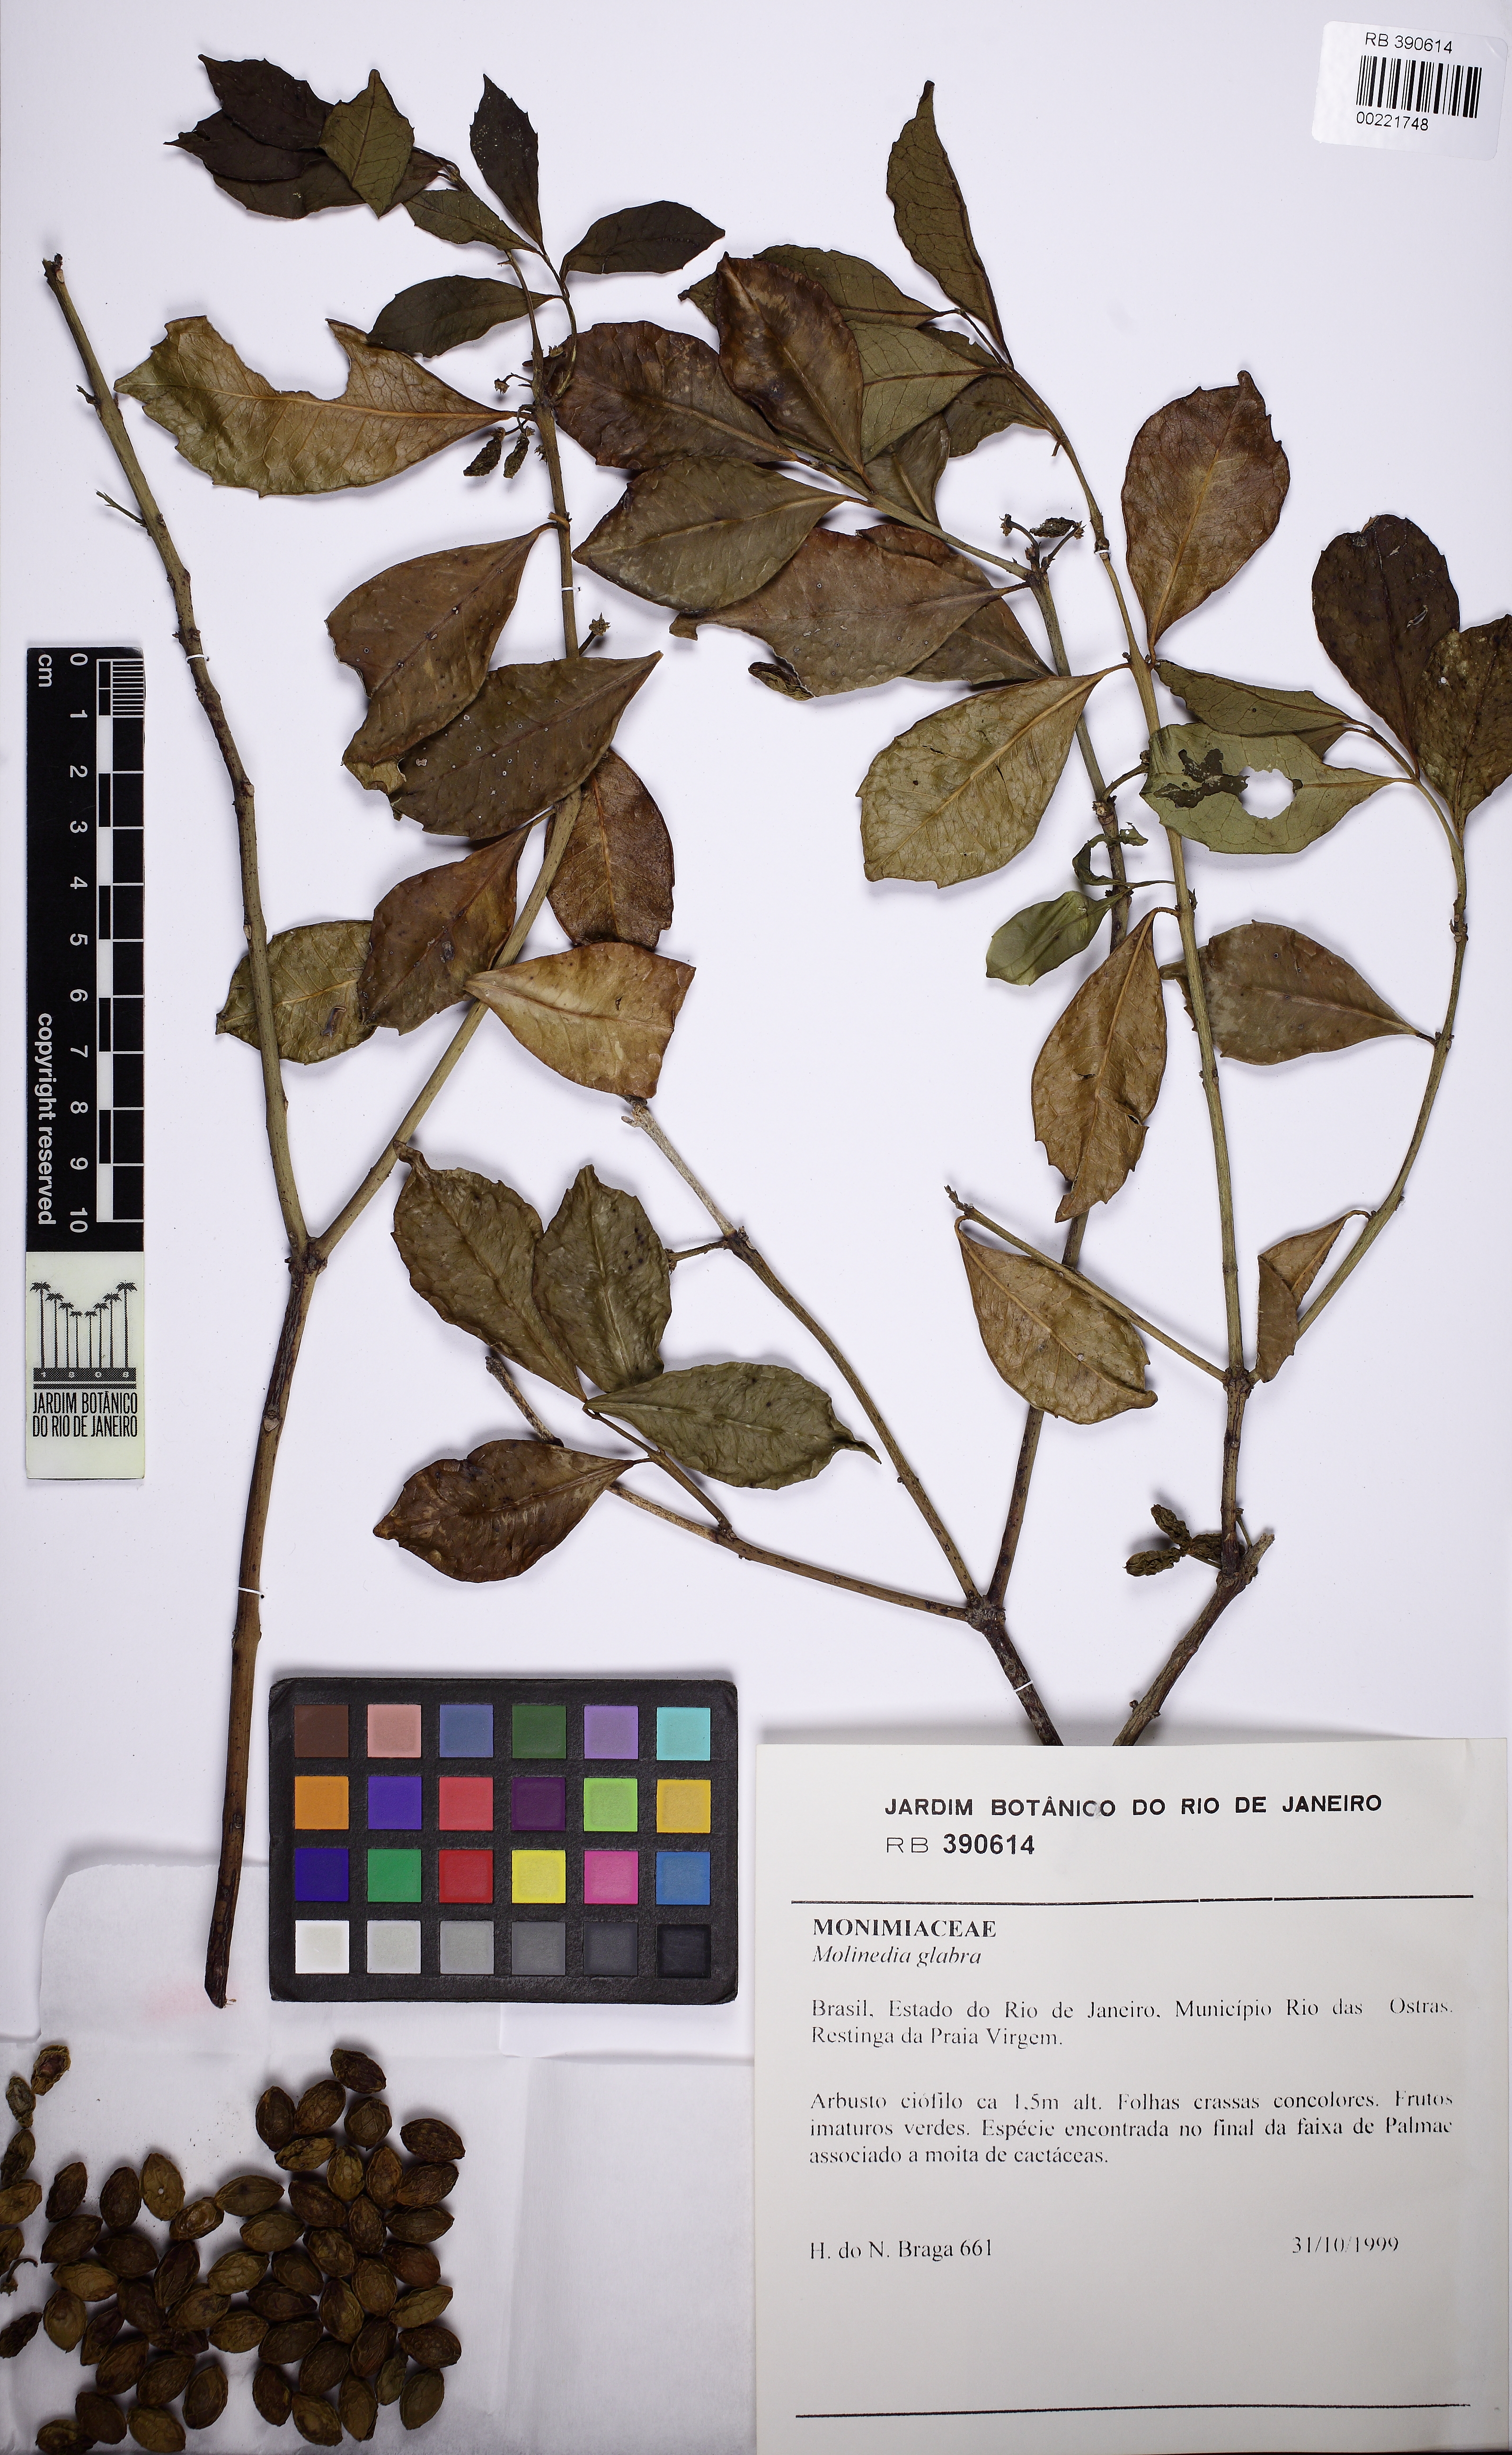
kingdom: Plantae
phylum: Tracheophyta
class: Magnoliopsida
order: Laurales
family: Monimiaceae
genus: Mollinedia
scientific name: Mollinedia glabra
